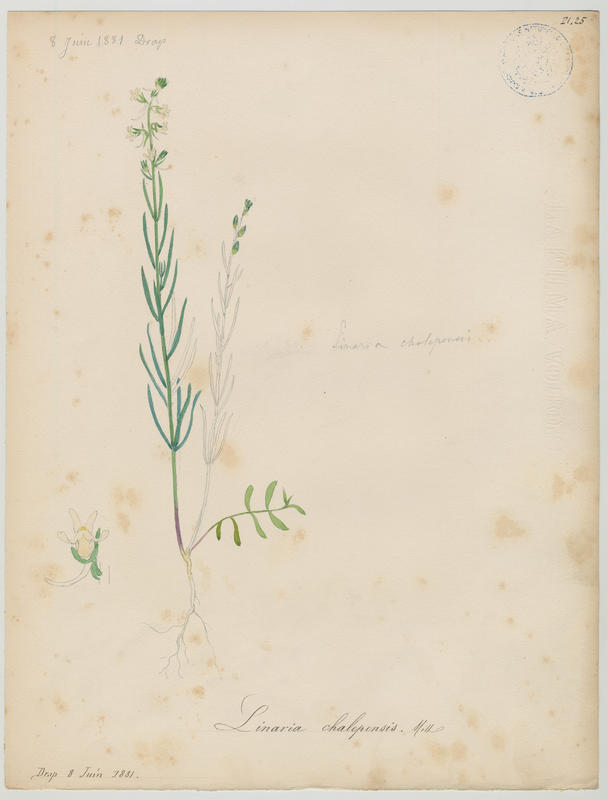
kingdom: Plantae
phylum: Tracheophyta
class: Magnoliopsida
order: Lamiales
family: Plantaginaceae
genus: Linaria
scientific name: Linaria chalepensis
